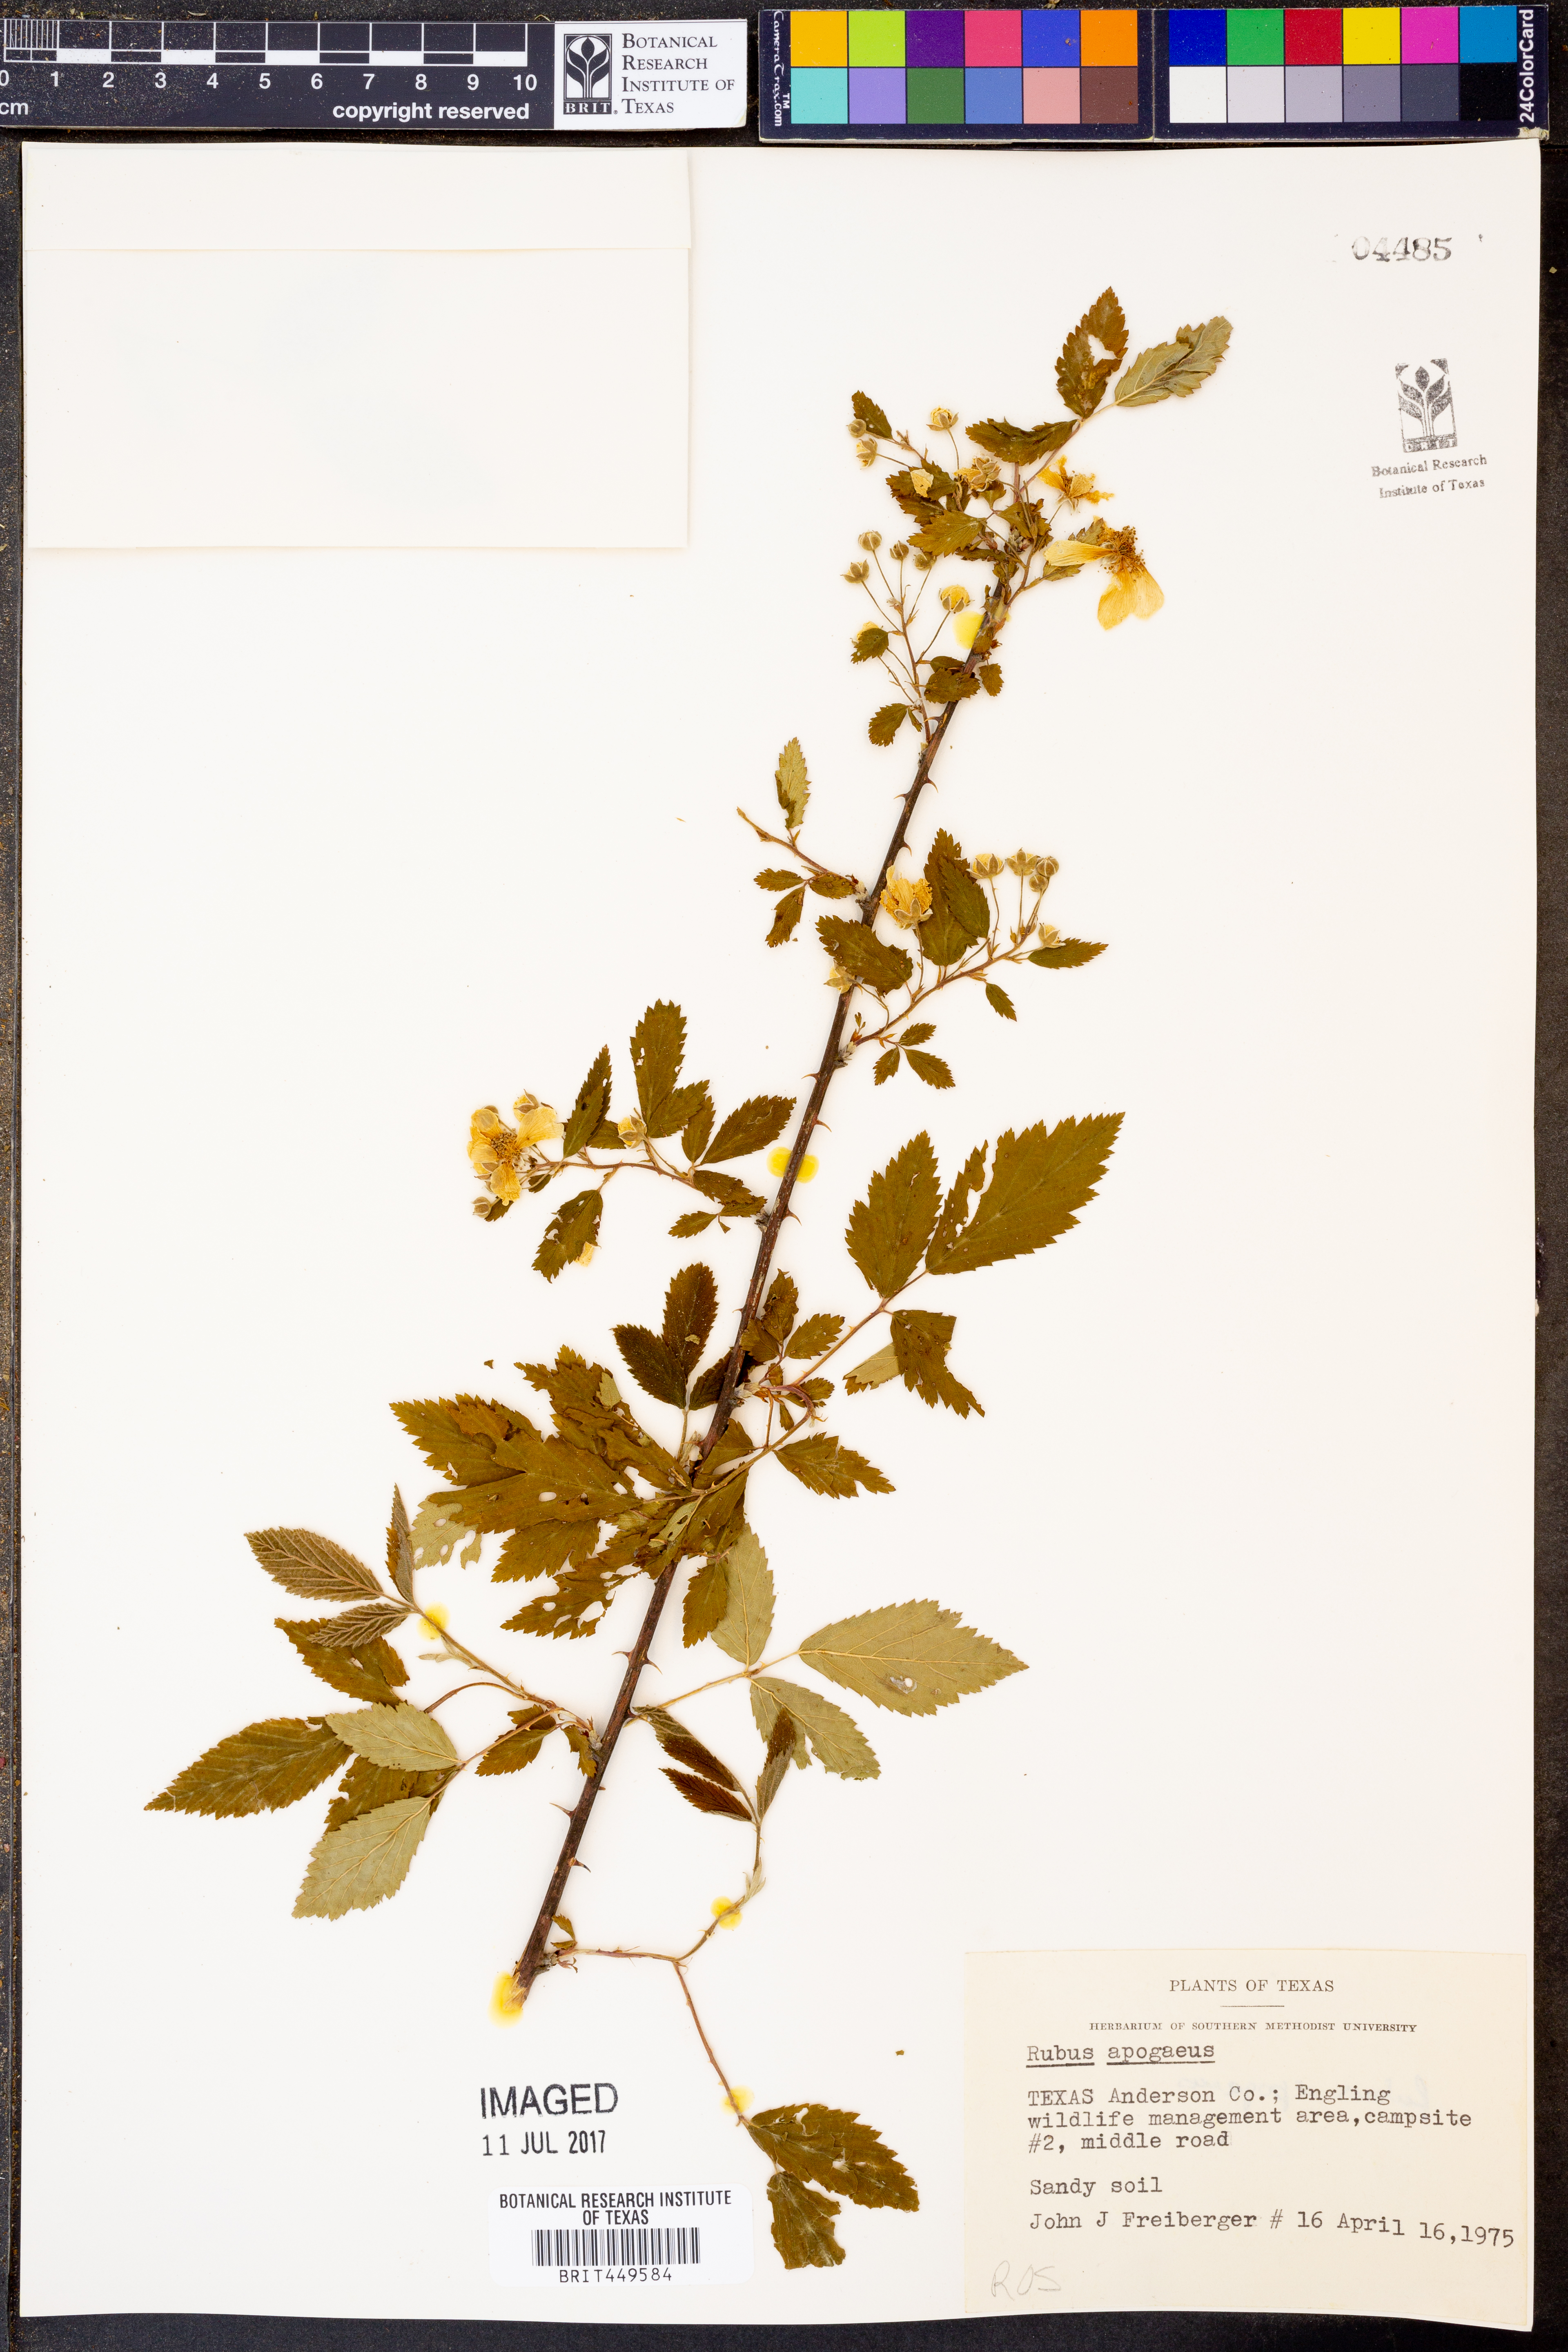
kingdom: Plantae
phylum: Tracheophyta
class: Magnoliopsida
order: Rosales
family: Rosaceae
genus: Rubus
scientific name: Rubus apogaeus
